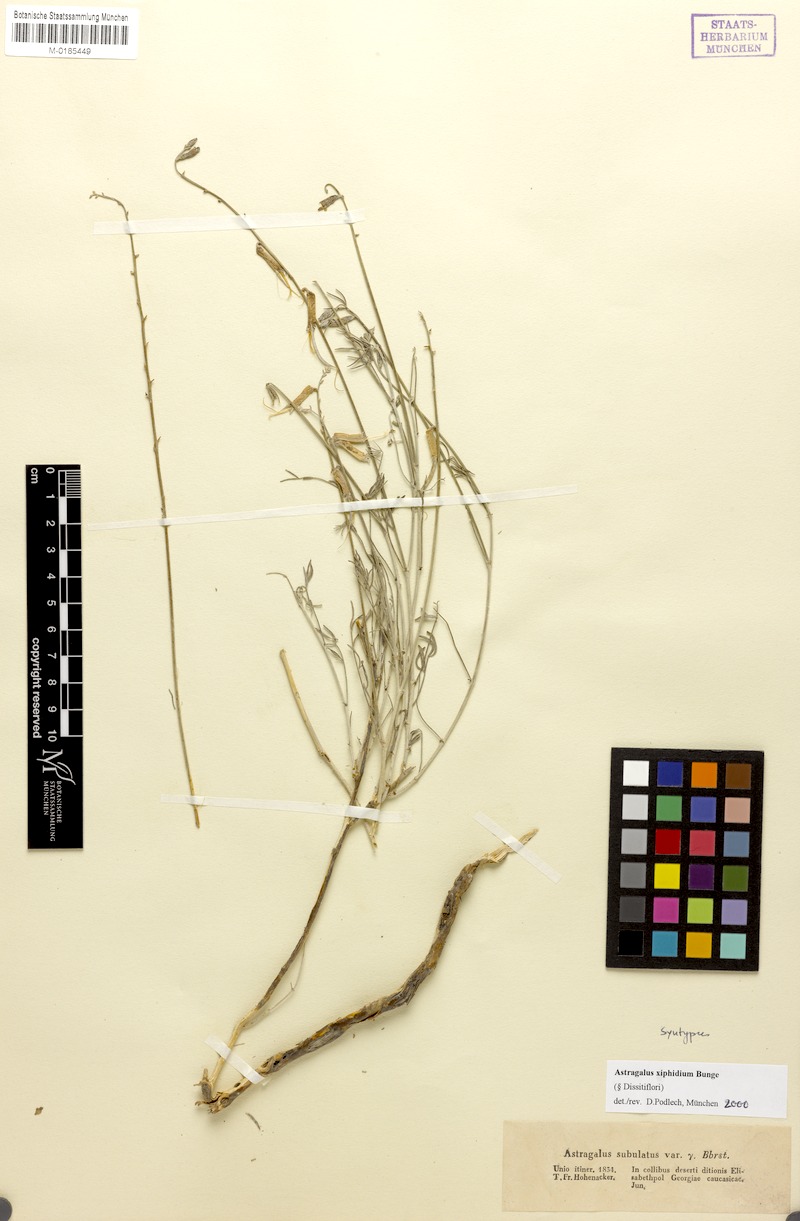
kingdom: Plantae
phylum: Tracheophyta
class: Magnoliopsida
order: Fabales
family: Fabaceae
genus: Astragalus
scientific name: Astragalus xiphidium
